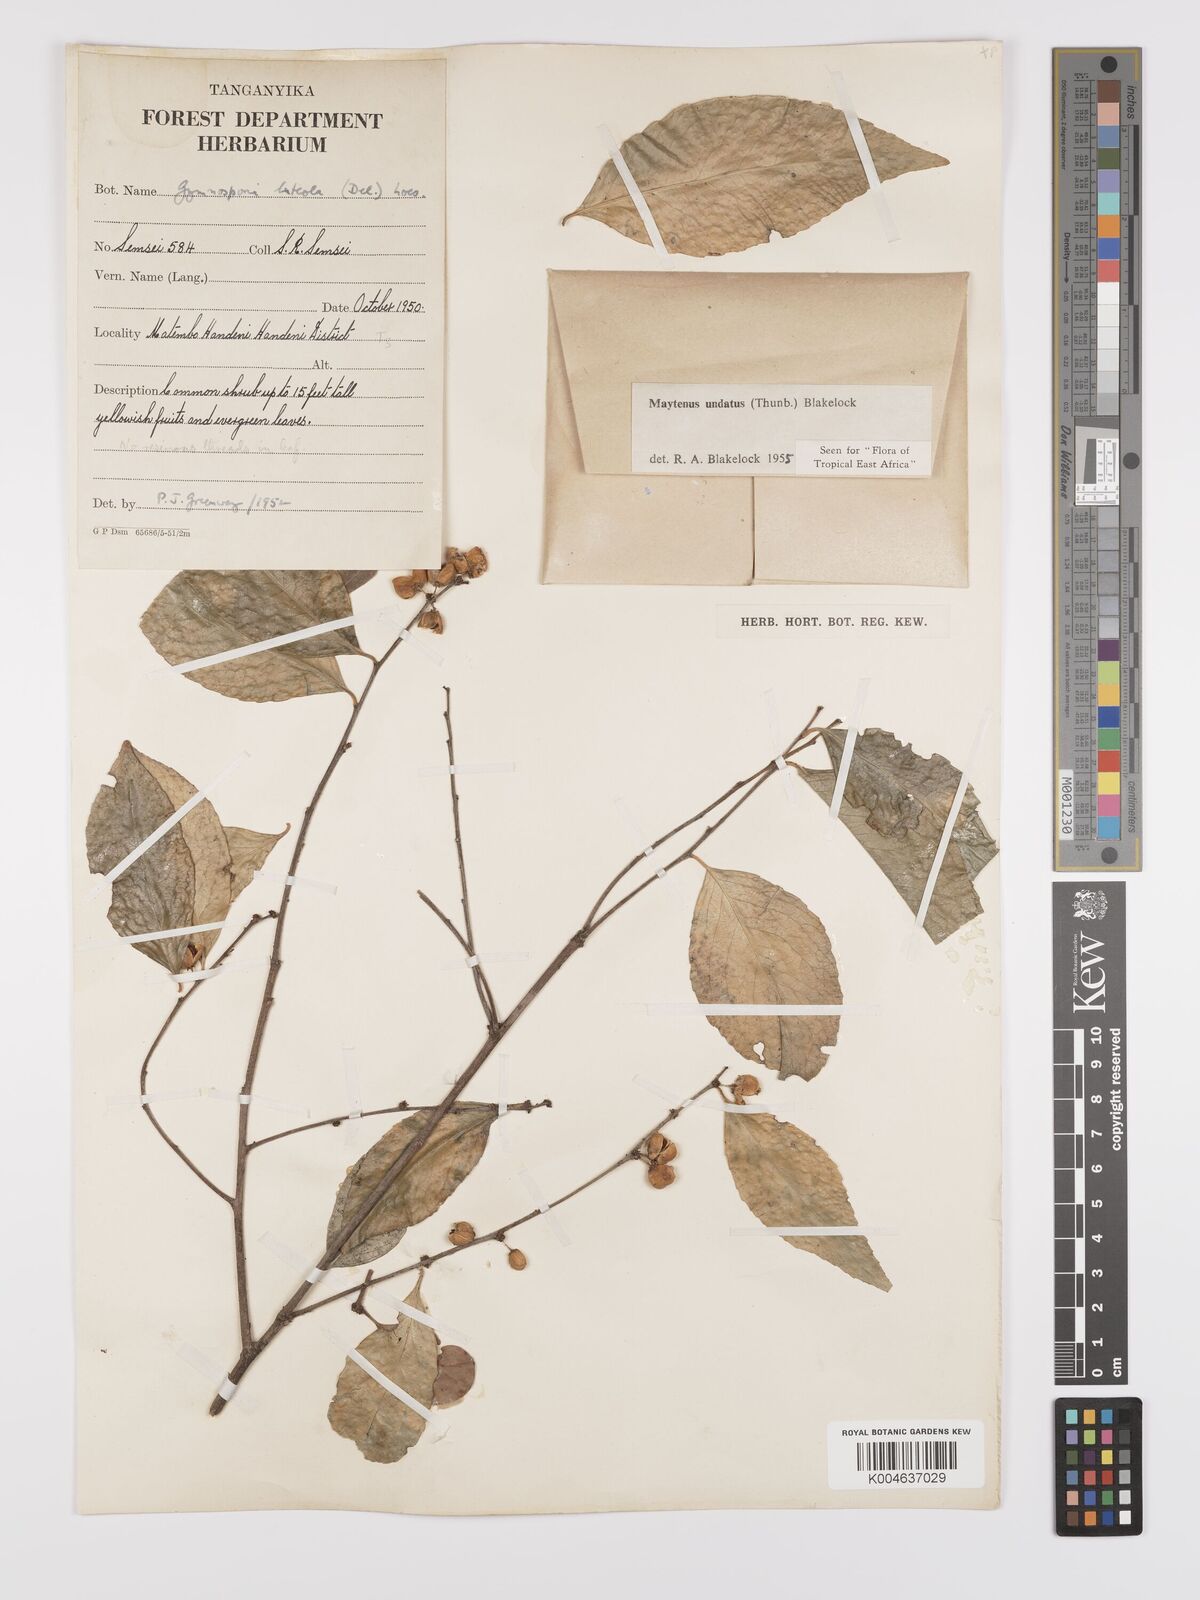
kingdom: Plantae
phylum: Tracheophyta
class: Magnoliopsida
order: Celastrales
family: Celastraceae
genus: Gymnosporia
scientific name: Gymnosporia undata
